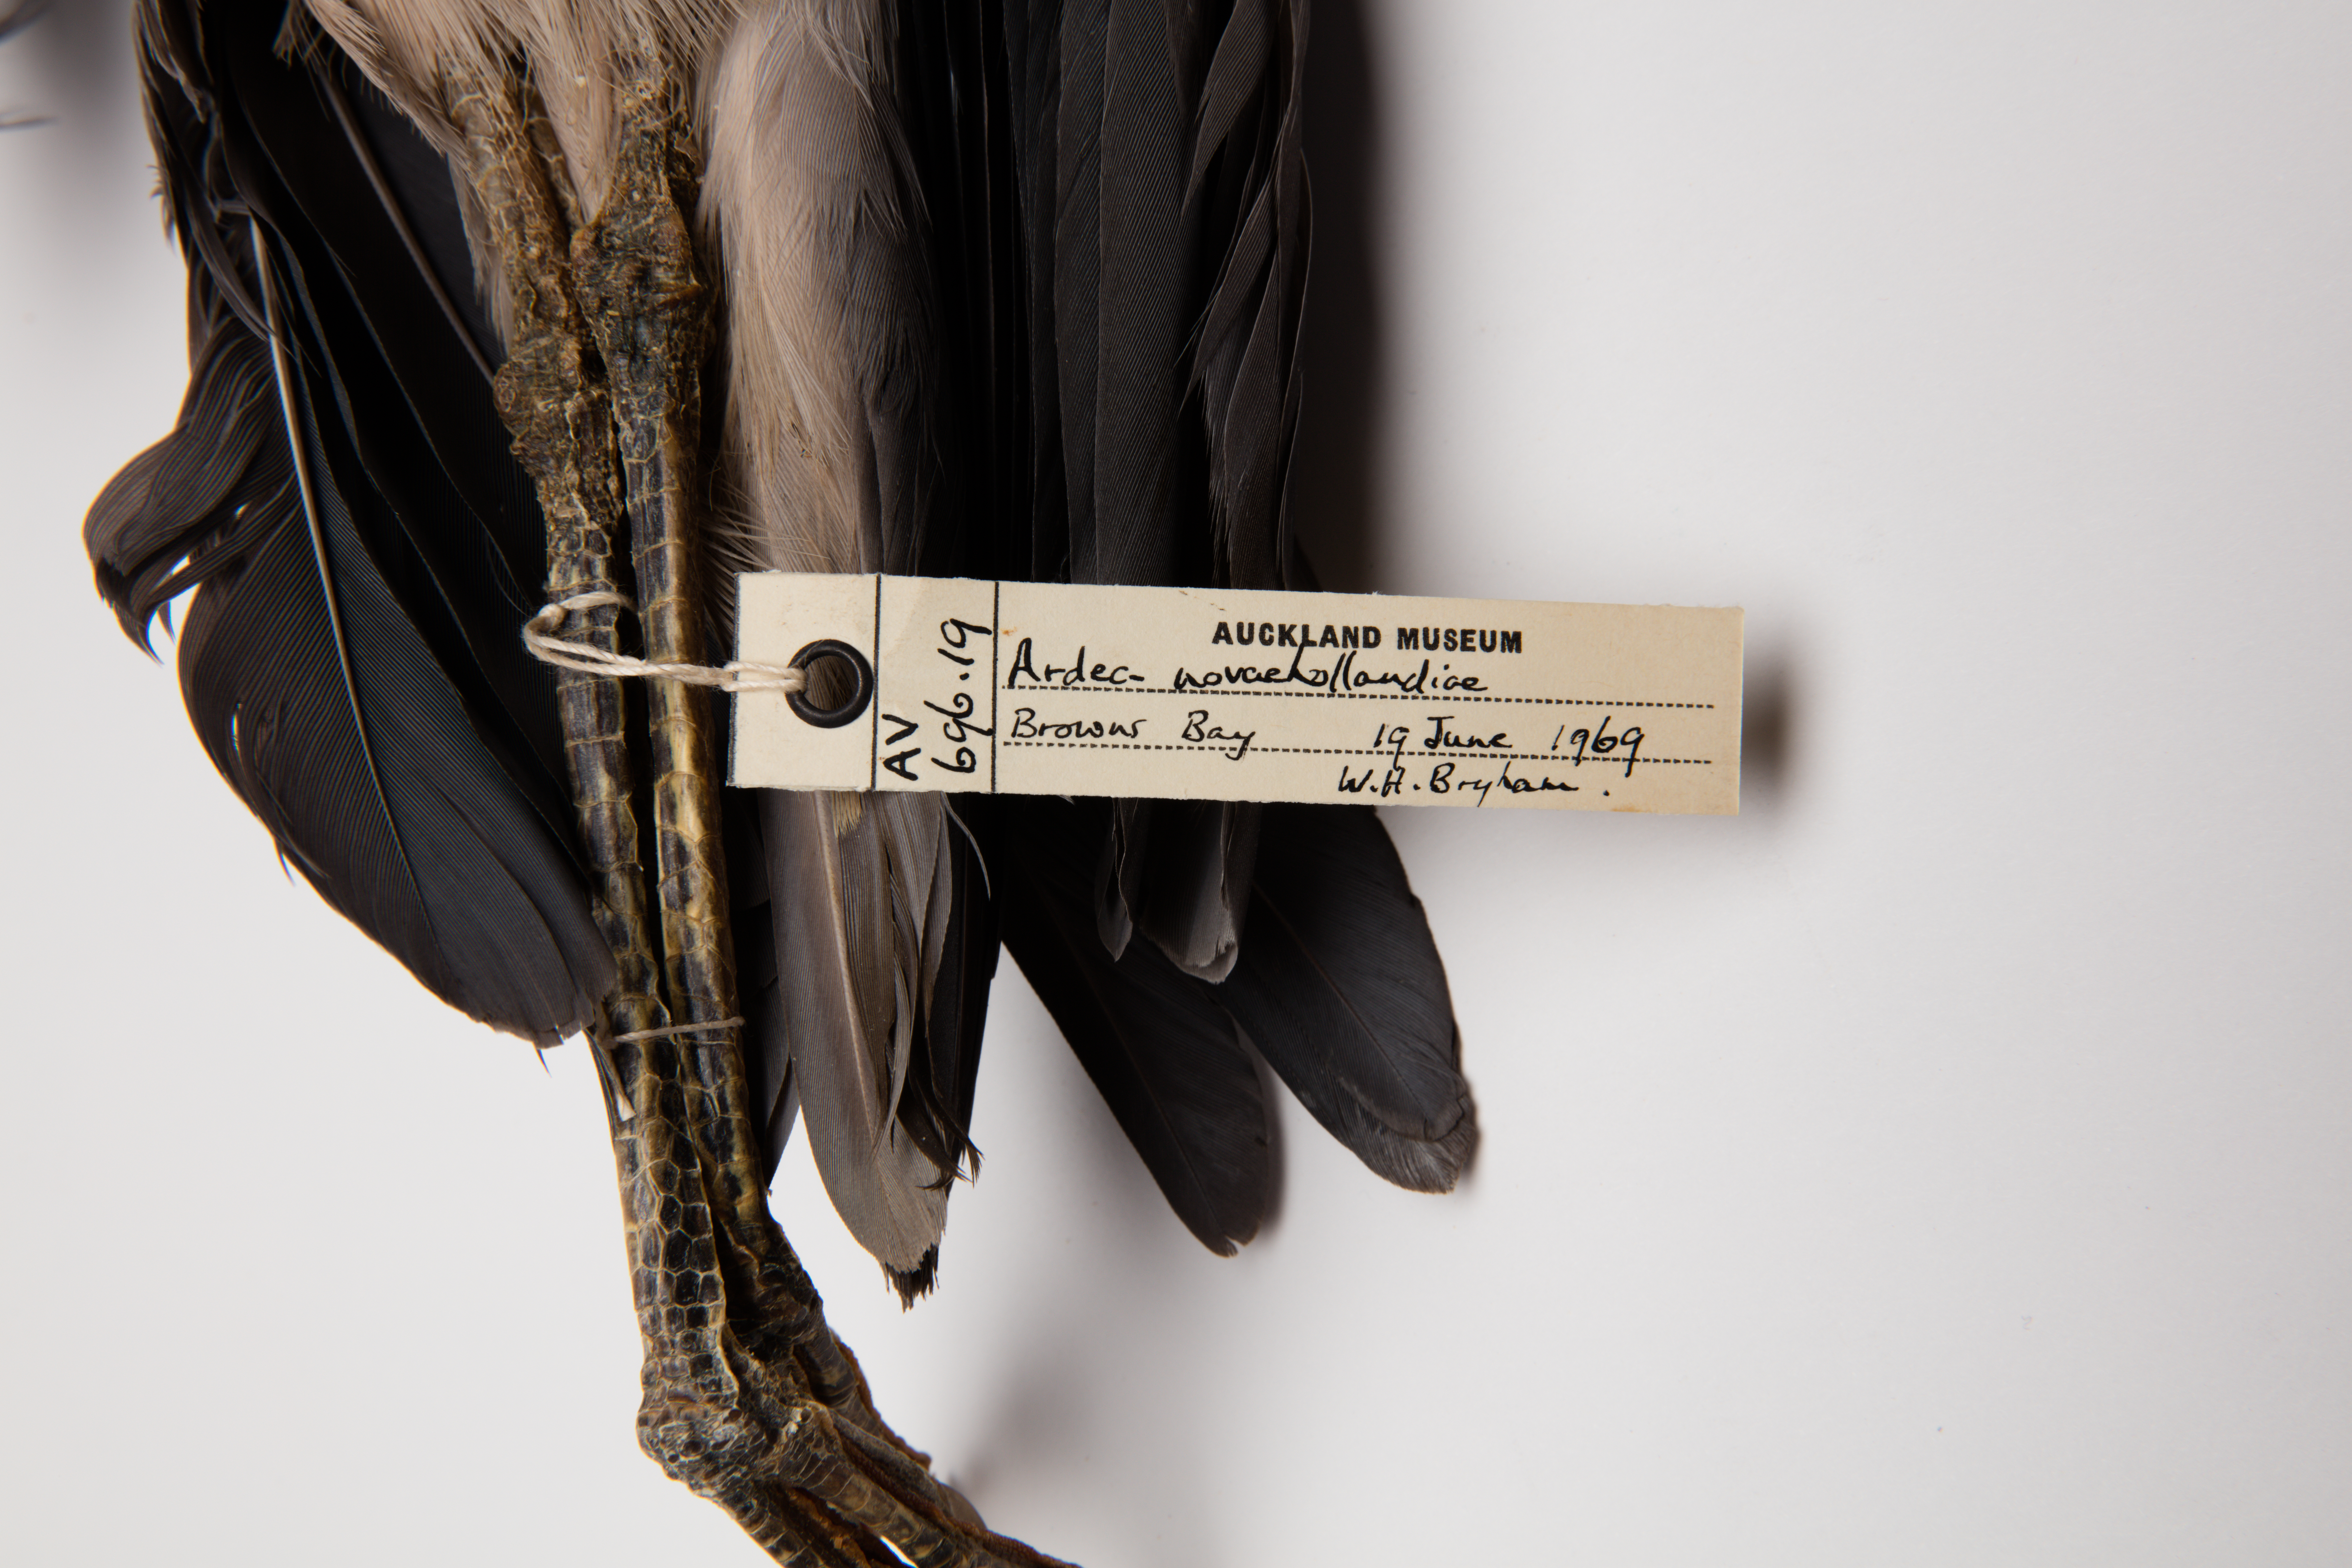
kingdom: Animalia
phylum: Chordata
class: Aves
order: Pelecaniformes
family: Ardeidae
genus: Egretta
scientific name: Egretta novaehollandiae
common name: White-faced heron
